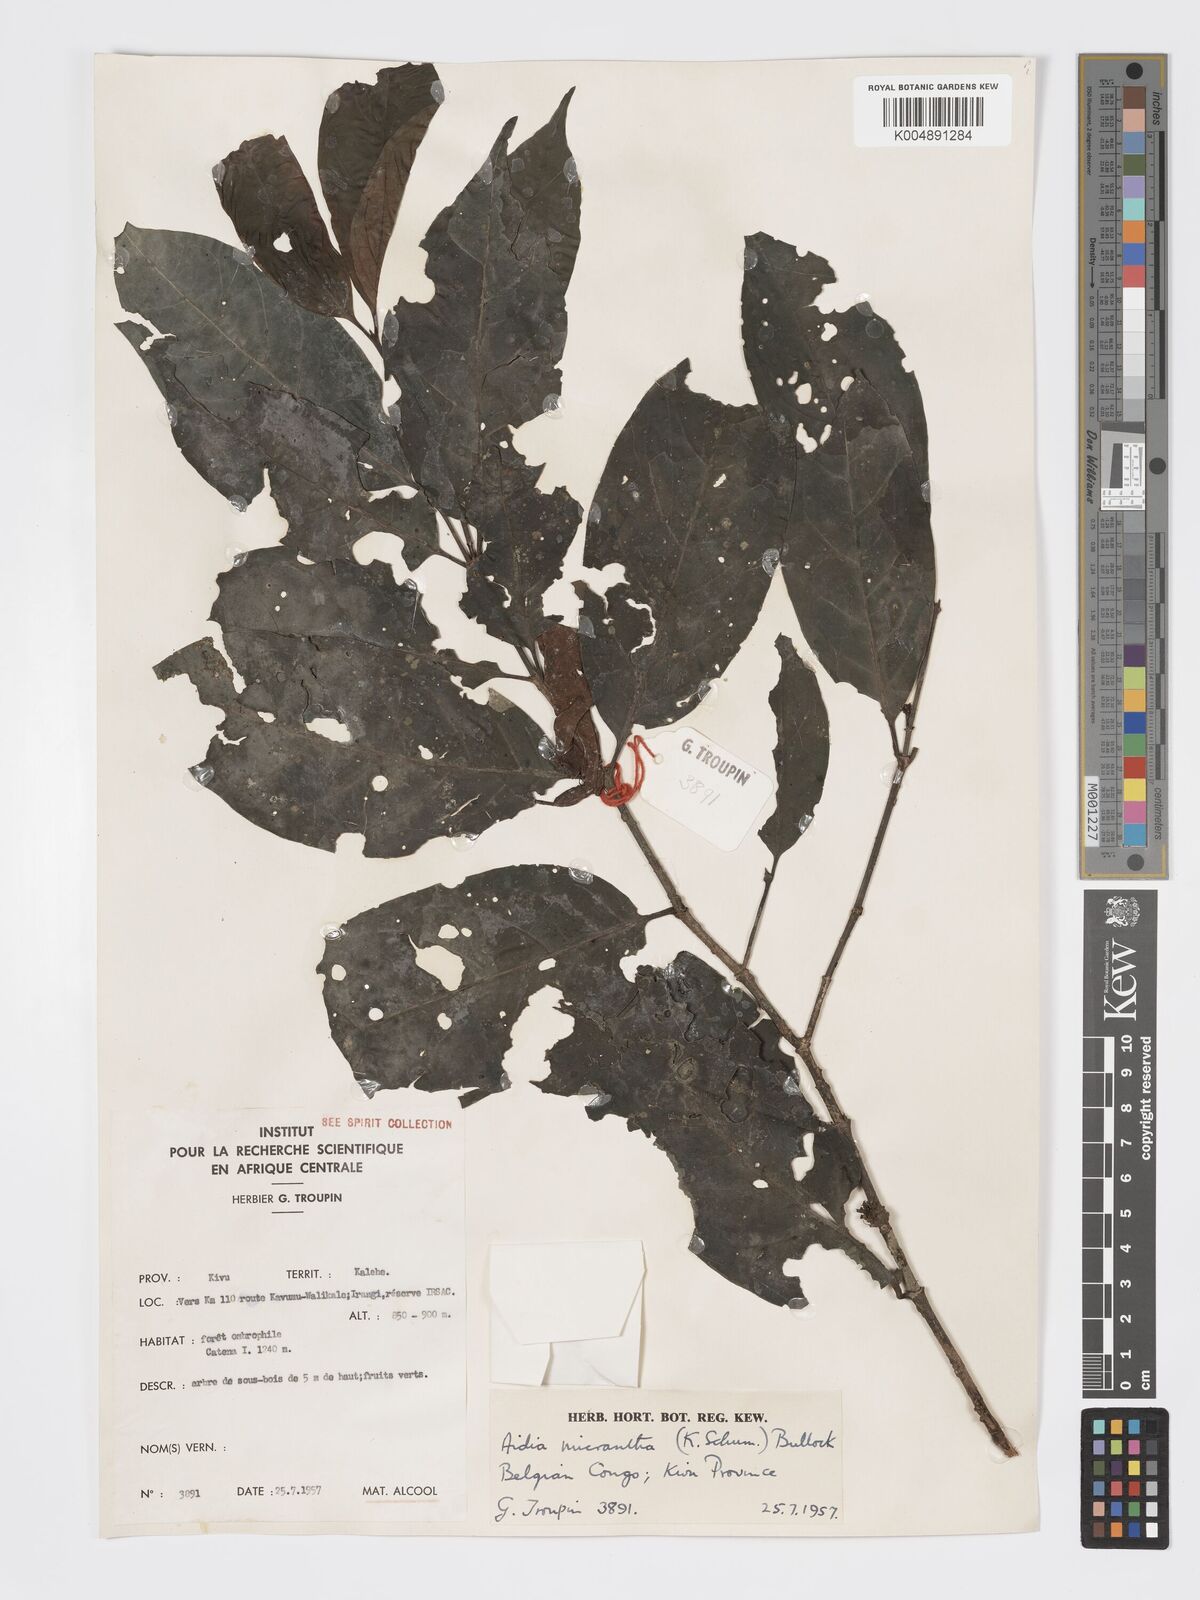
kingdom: Plantae
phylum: Tracheophyta
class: Magnoliopsida
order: Gentianales
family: Rubiaceae
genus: Aidia
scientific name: Aidia micrantha
